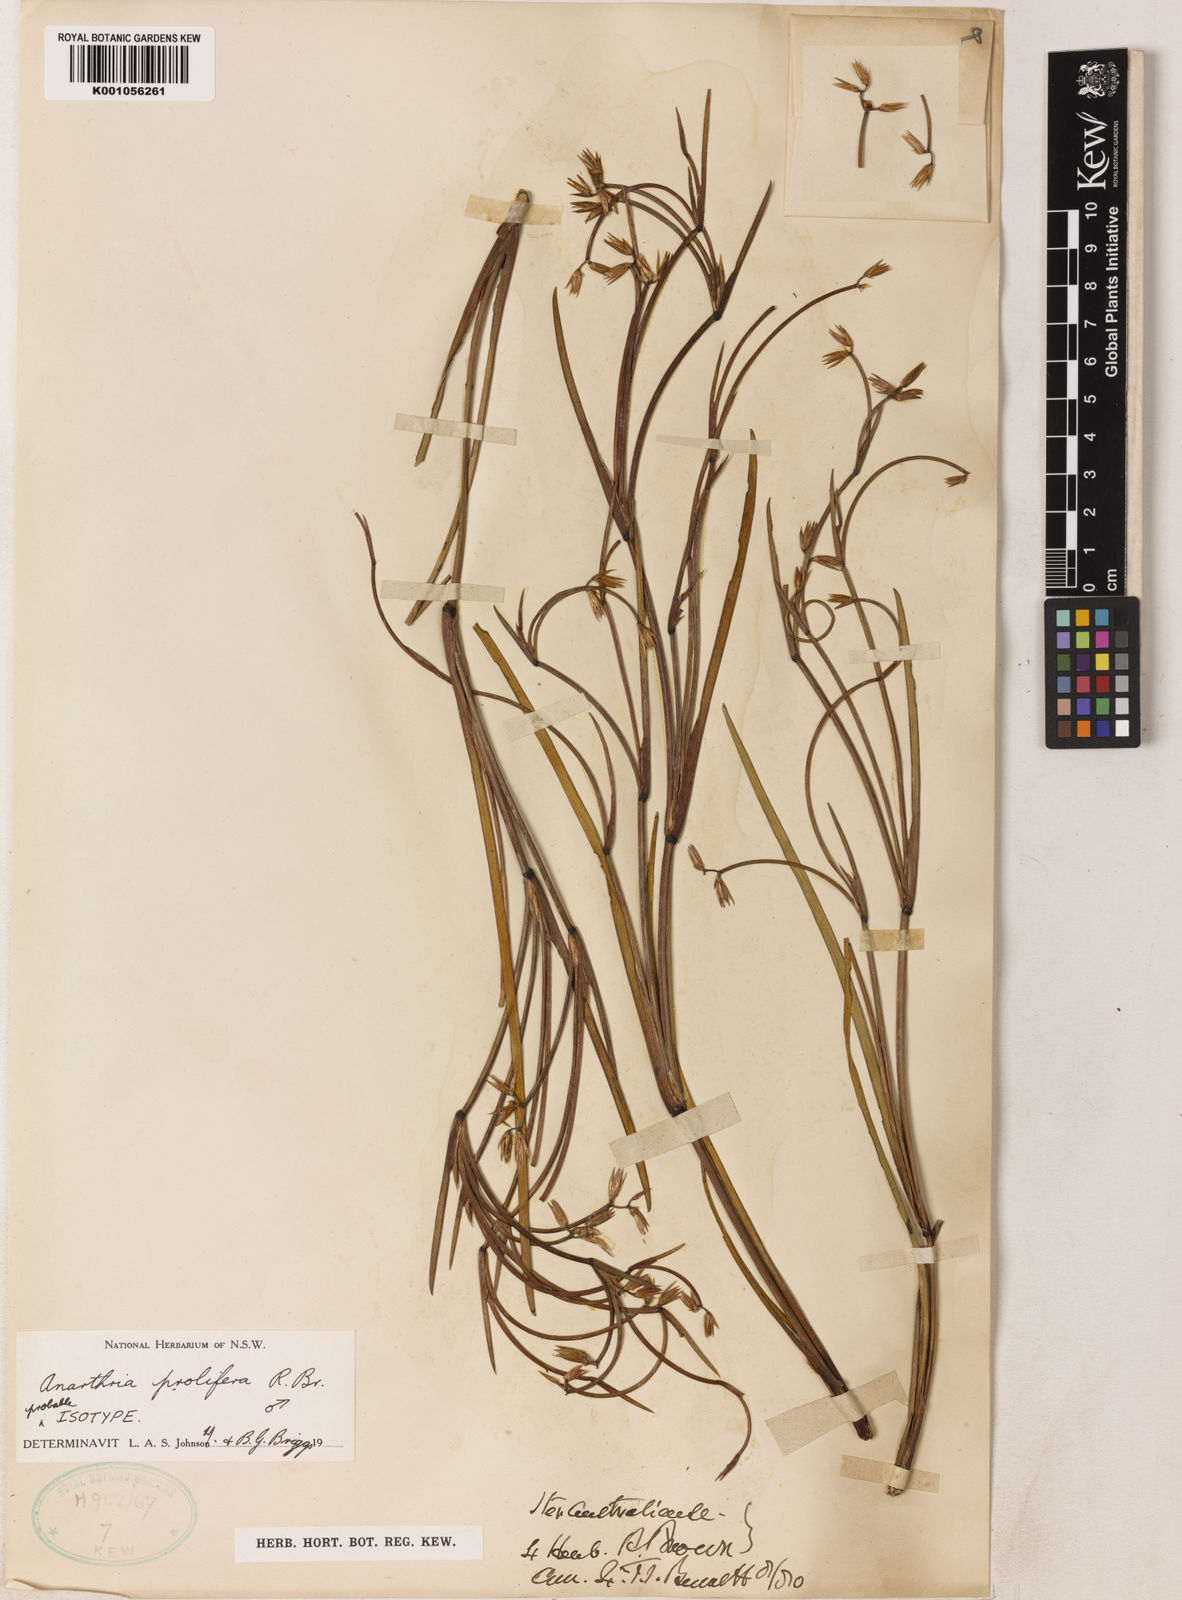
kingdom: Plantae
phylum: Tracheophyta
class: Liliopsida
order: Poales
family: Restionaceae
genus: Anarthria
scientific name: Anarthria prolifera
